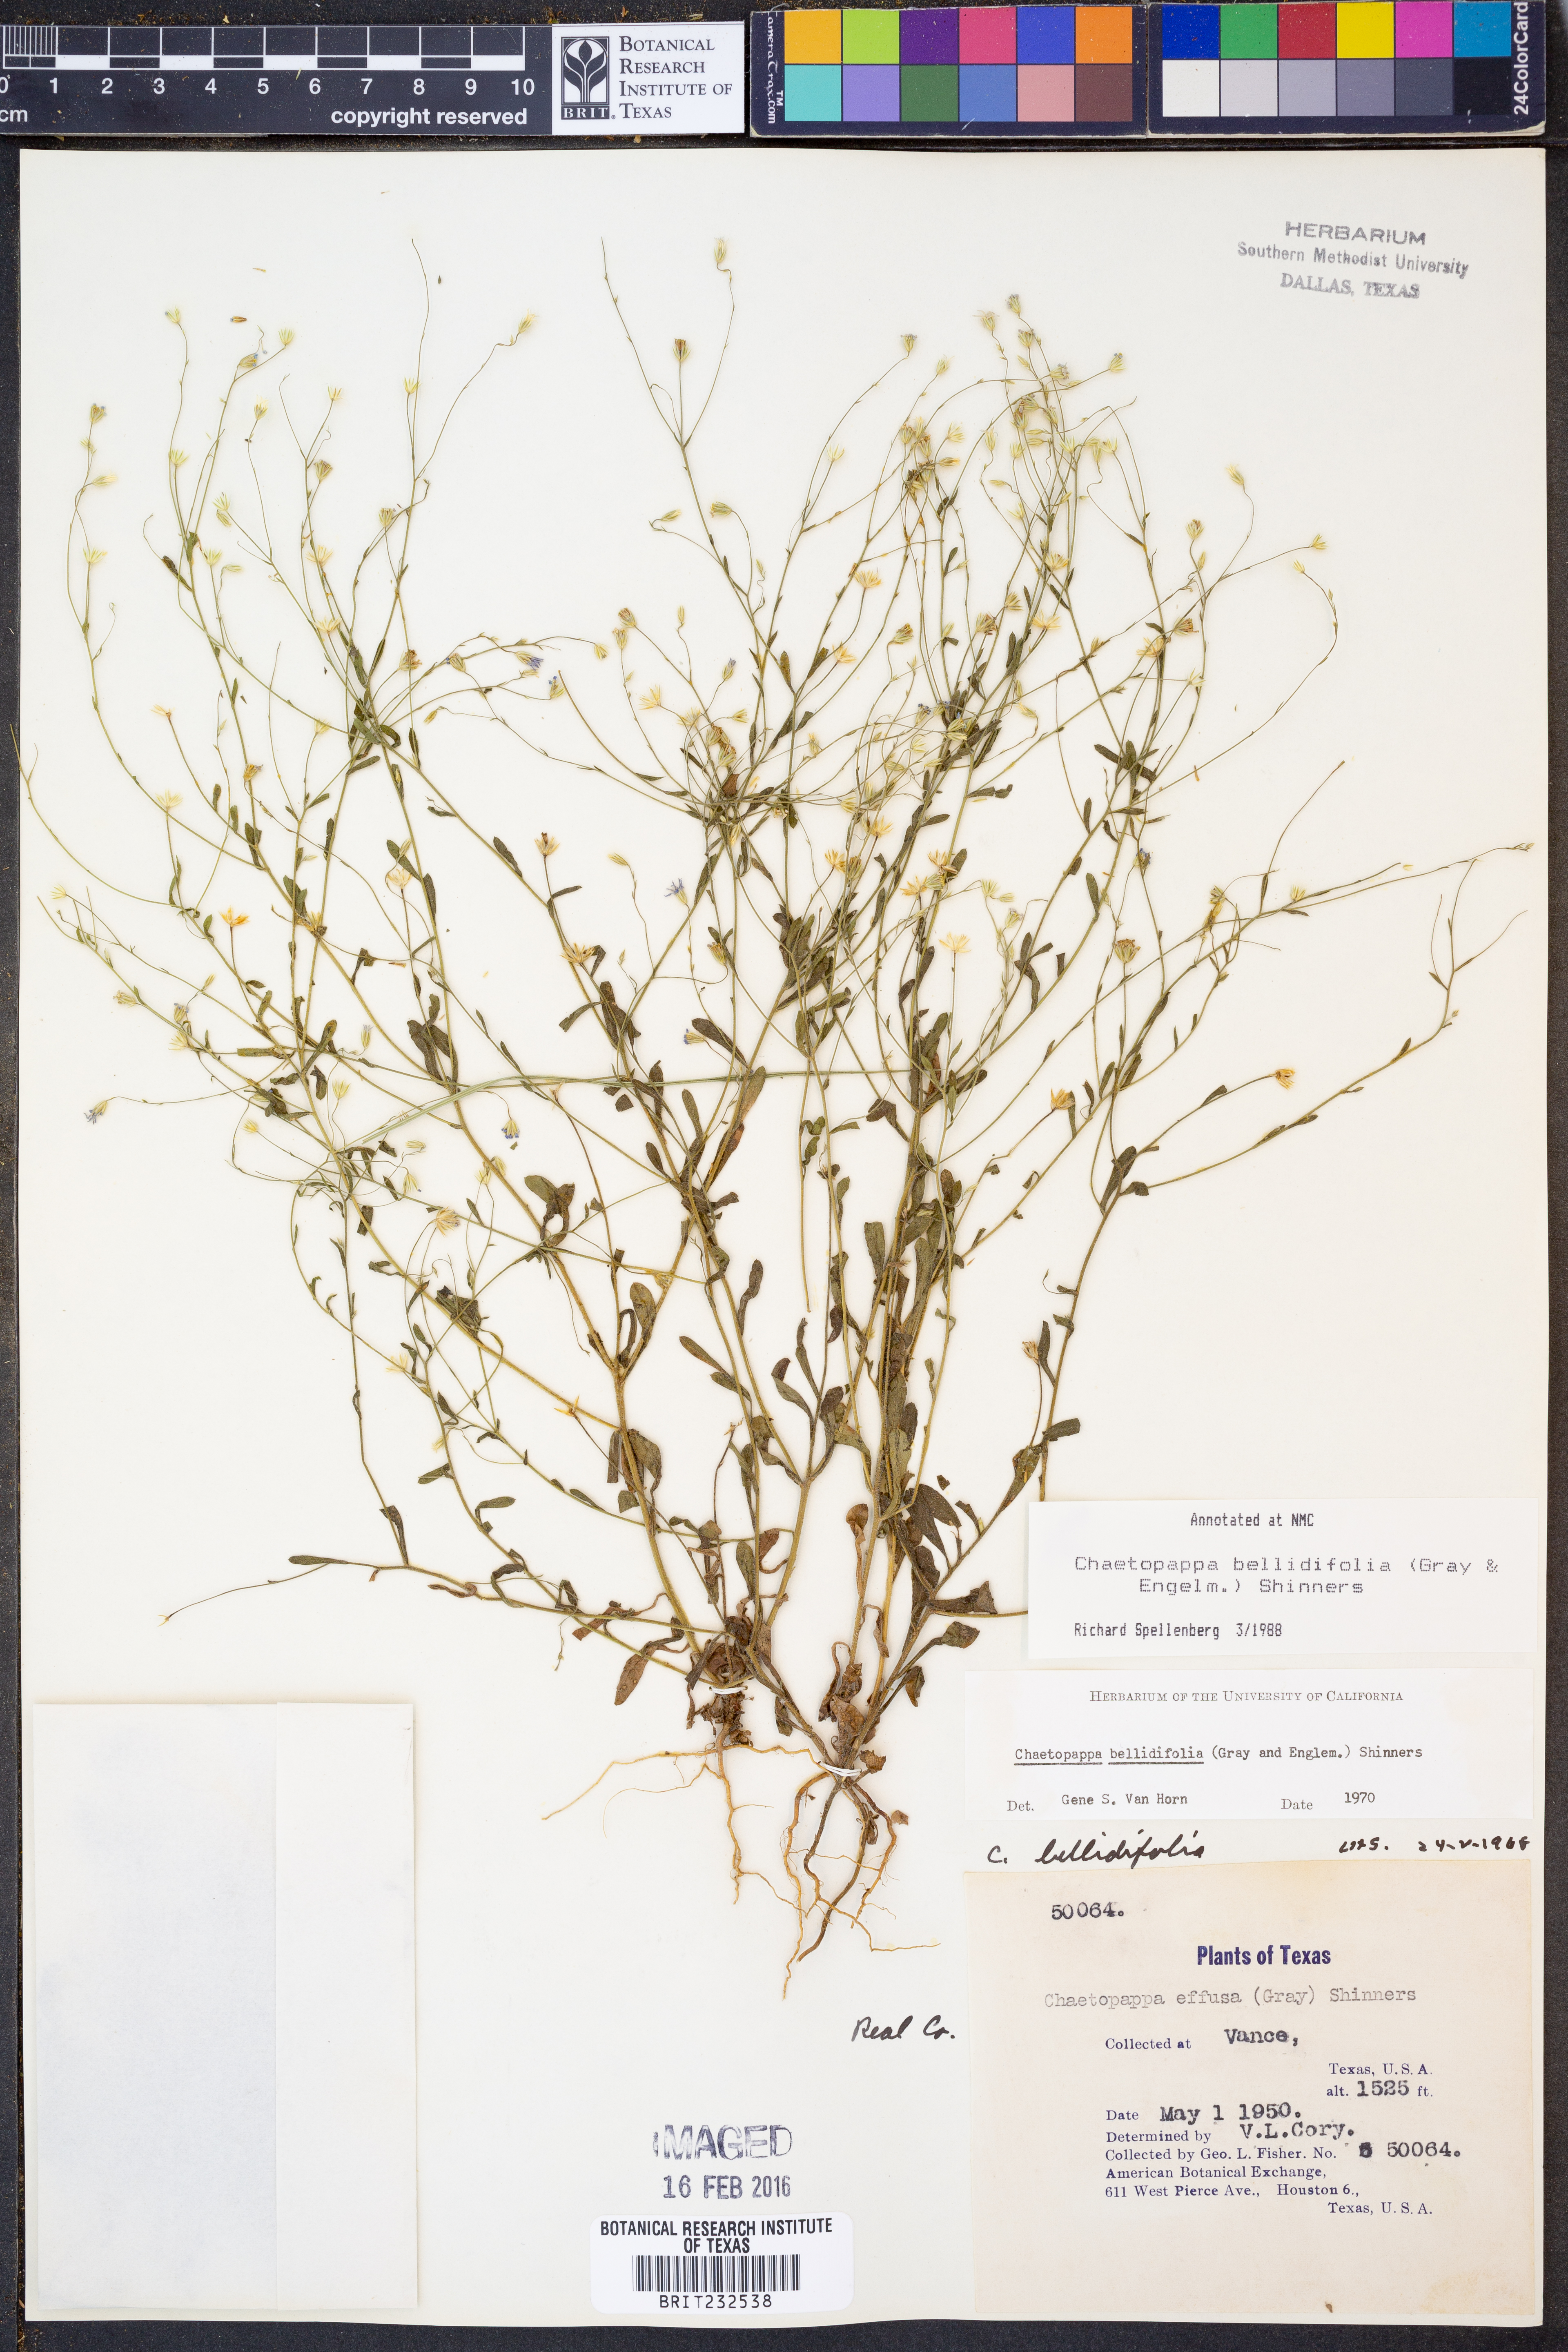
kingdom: Plantae
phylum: Tracheophyta
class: Magnoliopsida
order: Asterales
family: Asteraceae
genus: Chaetopappa
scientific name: Chaetopappa bellidifolia
